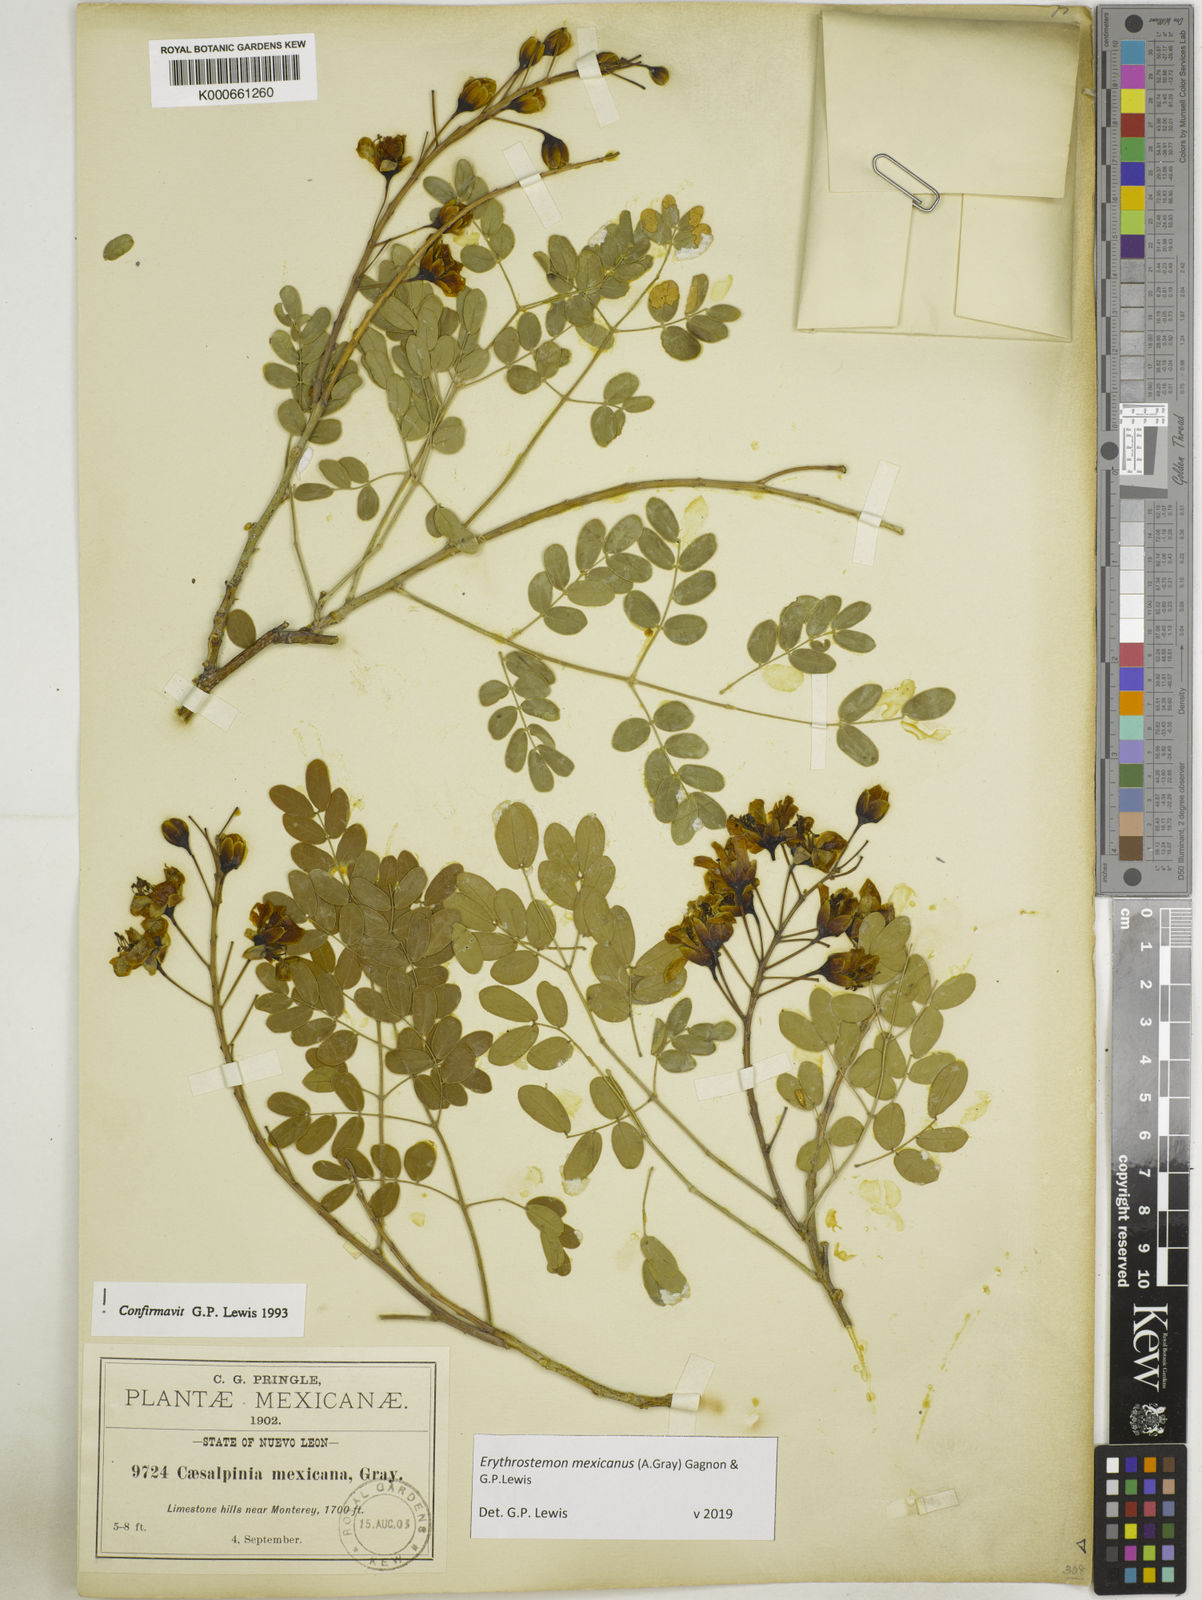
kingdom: Plantae
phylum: Tracheophyta
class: Magnoliopsida
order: Fabales
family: Fabaceae
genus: Erythrostemon
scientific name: Erythrostemon mexicanus
